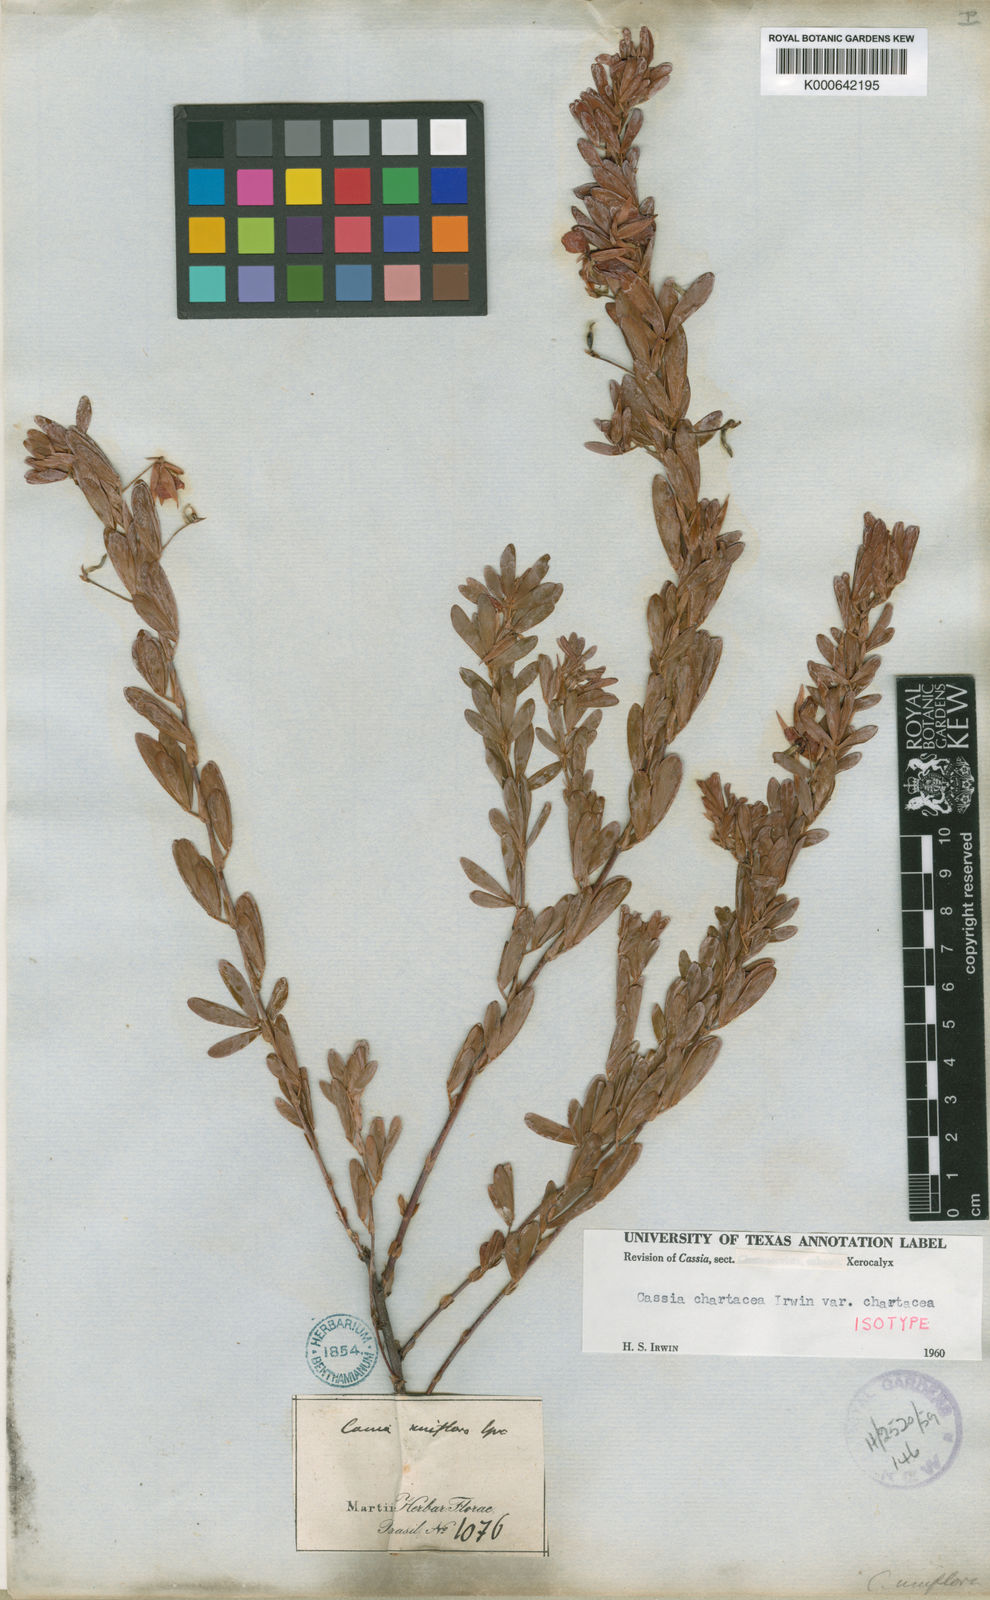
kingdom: Plantae
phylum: Tracheophyta
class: Magnoliopsida
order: Fabales
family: Fabaceae
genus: Chamaecrista
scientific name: Chamaecrista langsdorffii
